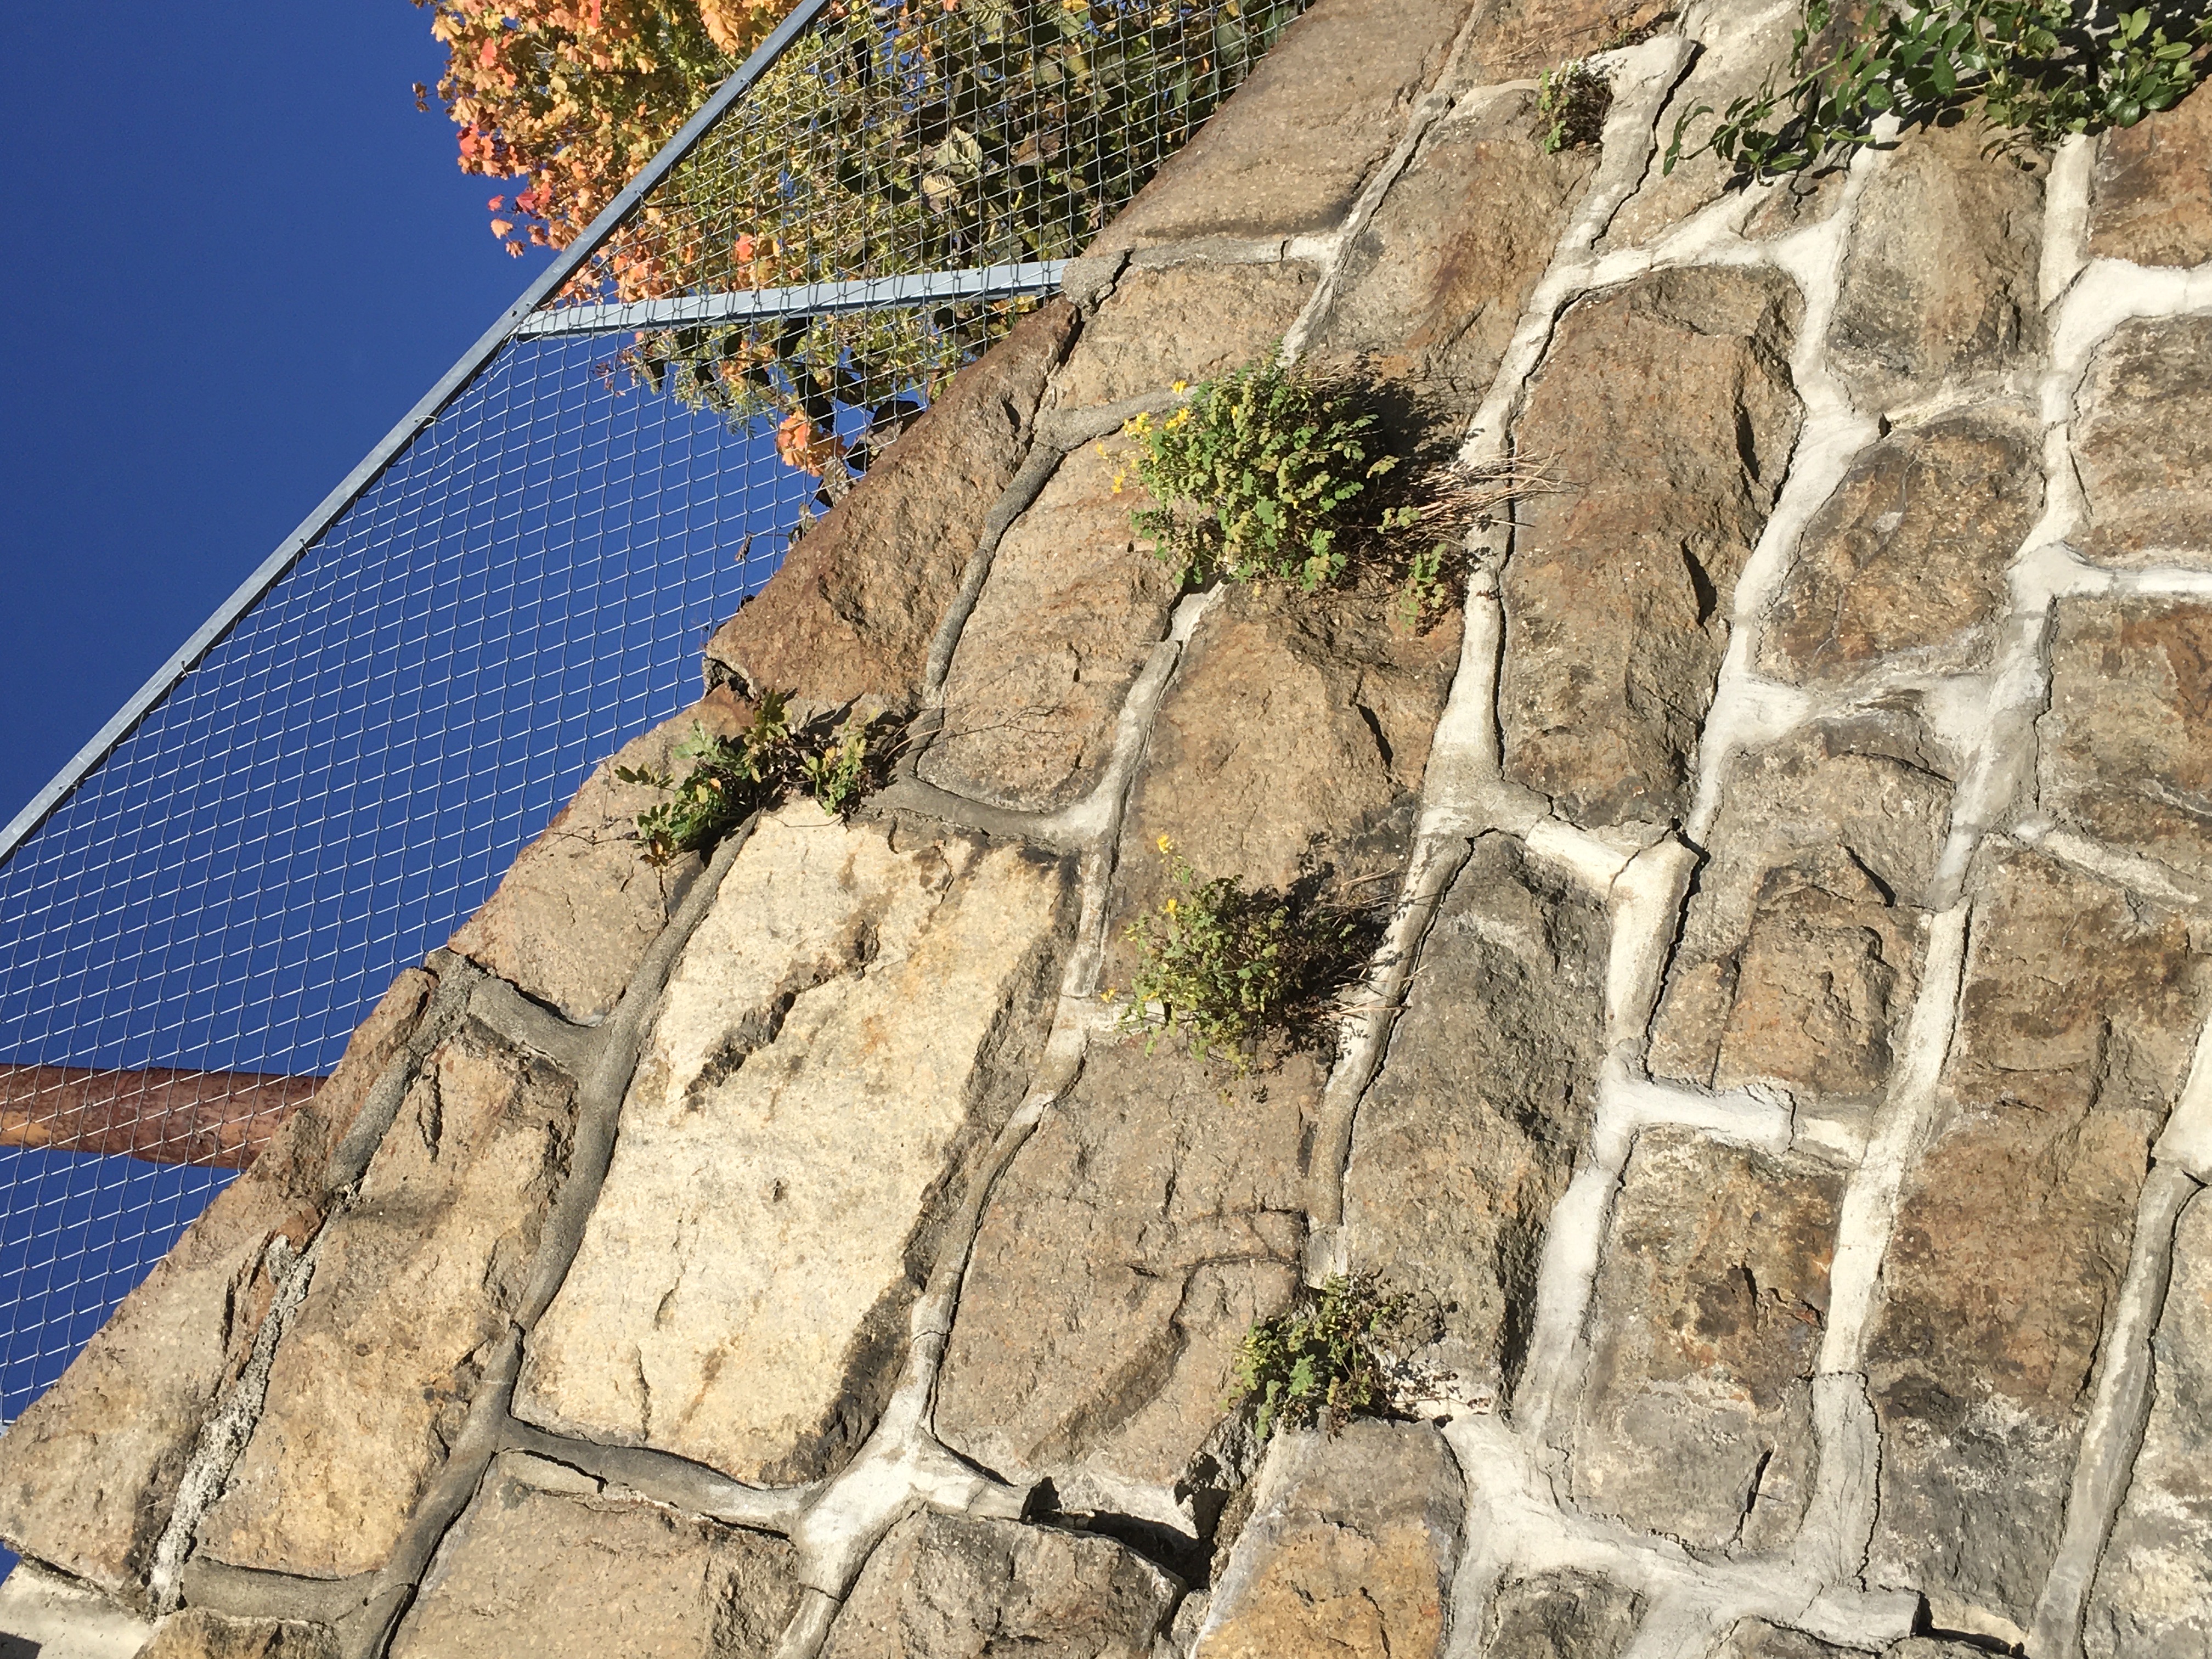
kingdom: Plantae
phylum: Tracheophyta
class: Magnoliopsida
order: Ranunculales
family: Papaveraceae
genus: Pseudofumaria
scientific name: Pseudofumaria lutea
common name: gul lerkespore
